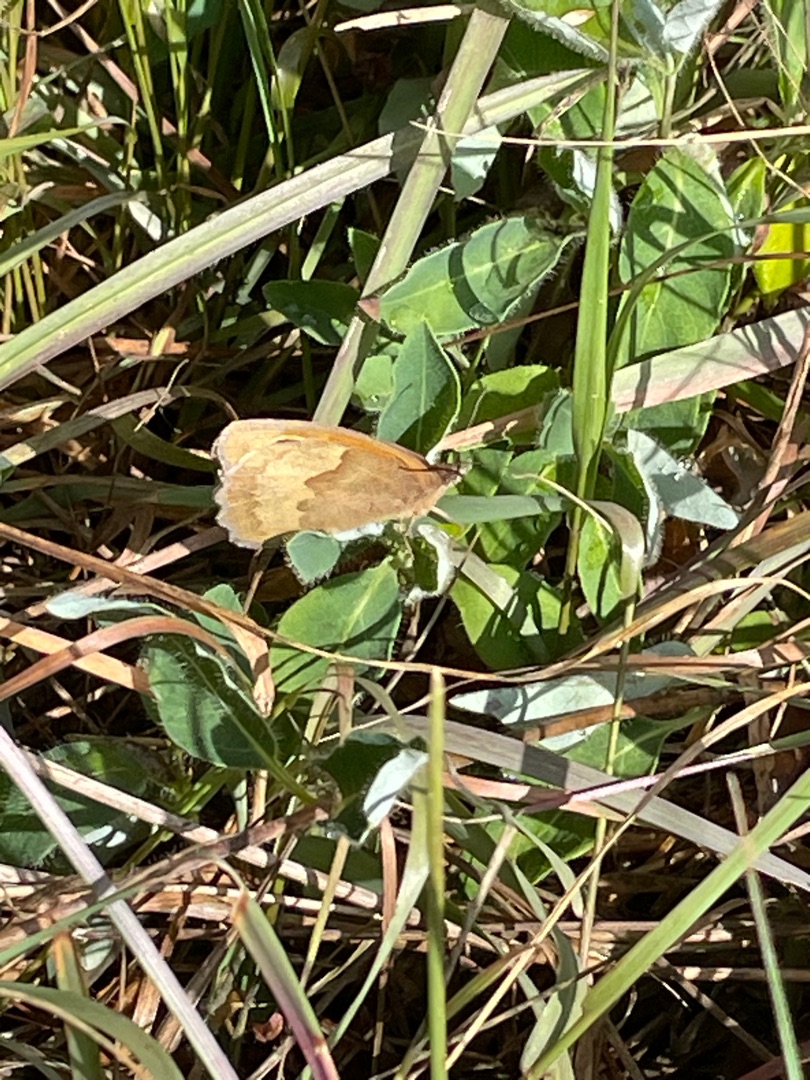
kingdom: Animalia
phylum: Arthropoda
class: Insecta
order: Lepidoptera
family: Nymphalidae
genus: Maniola
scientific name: Maniola jurtina
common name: Græsrandøje
